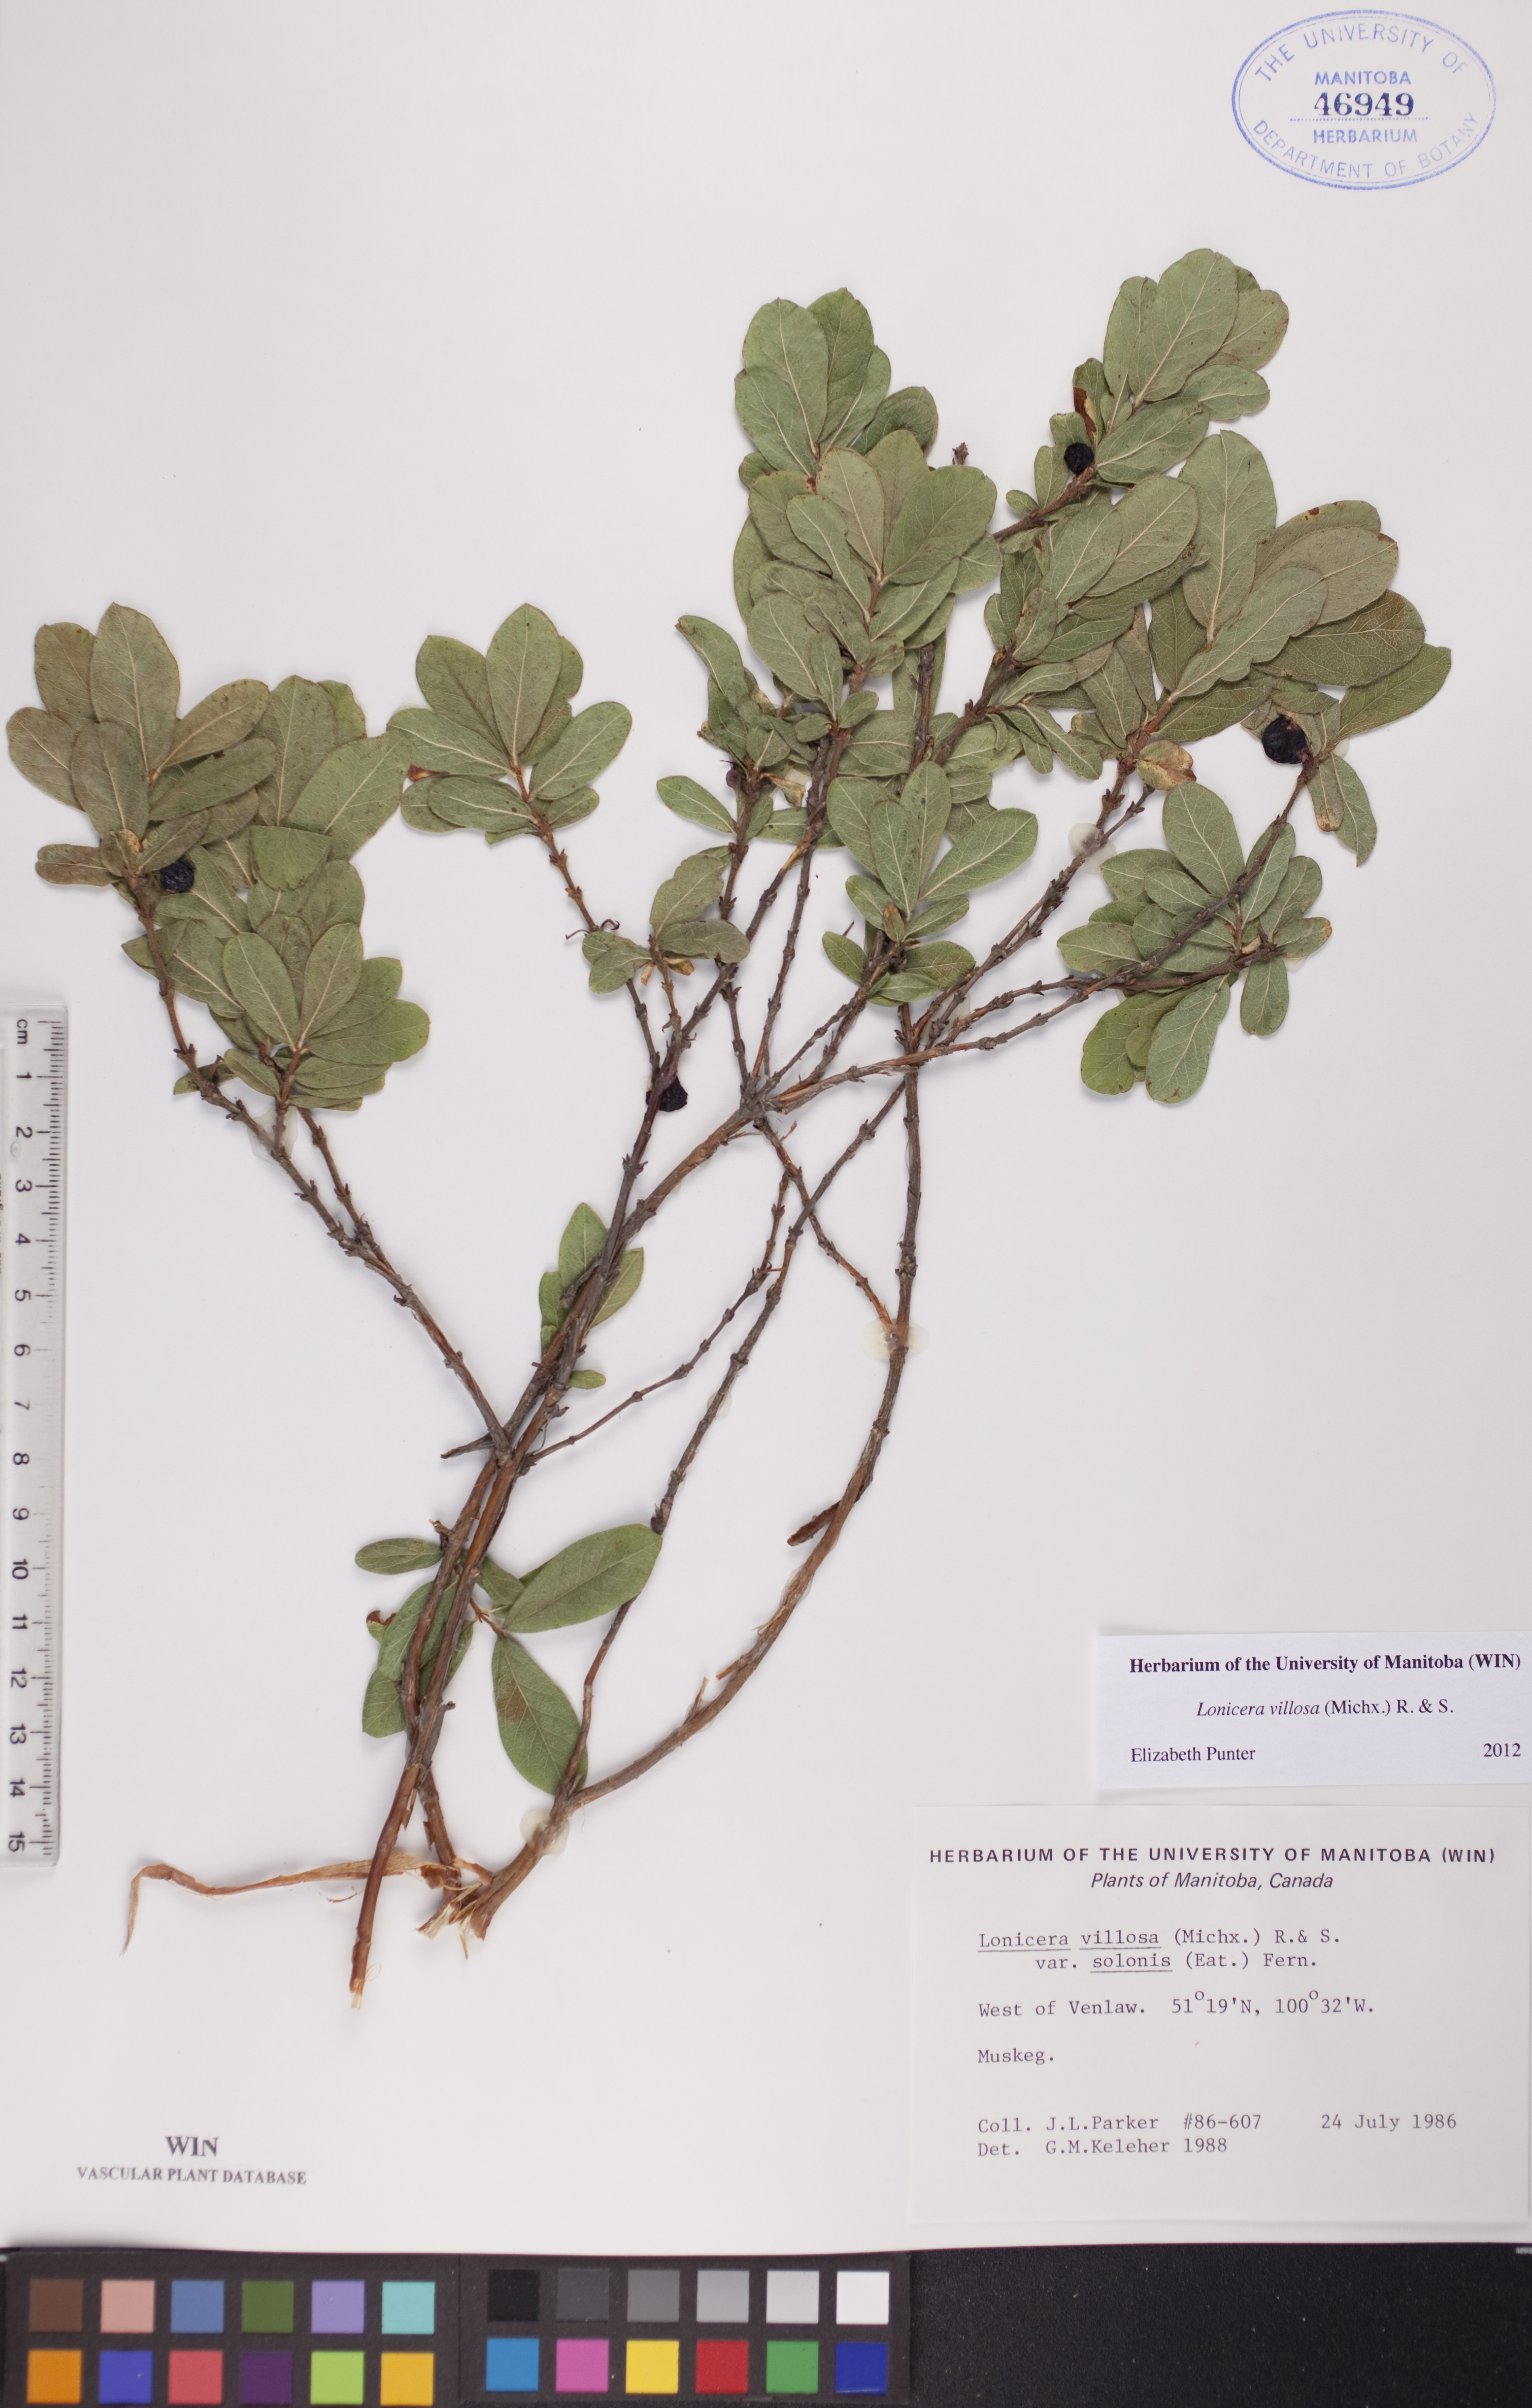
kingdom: Plantae
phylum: Tracheophyta
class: Magnoliopsida
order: Dipsacales
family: Caprifoliaceae
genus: Lonicera
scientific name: Lonicera villosa
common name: Mountain fly-honeysuckle
